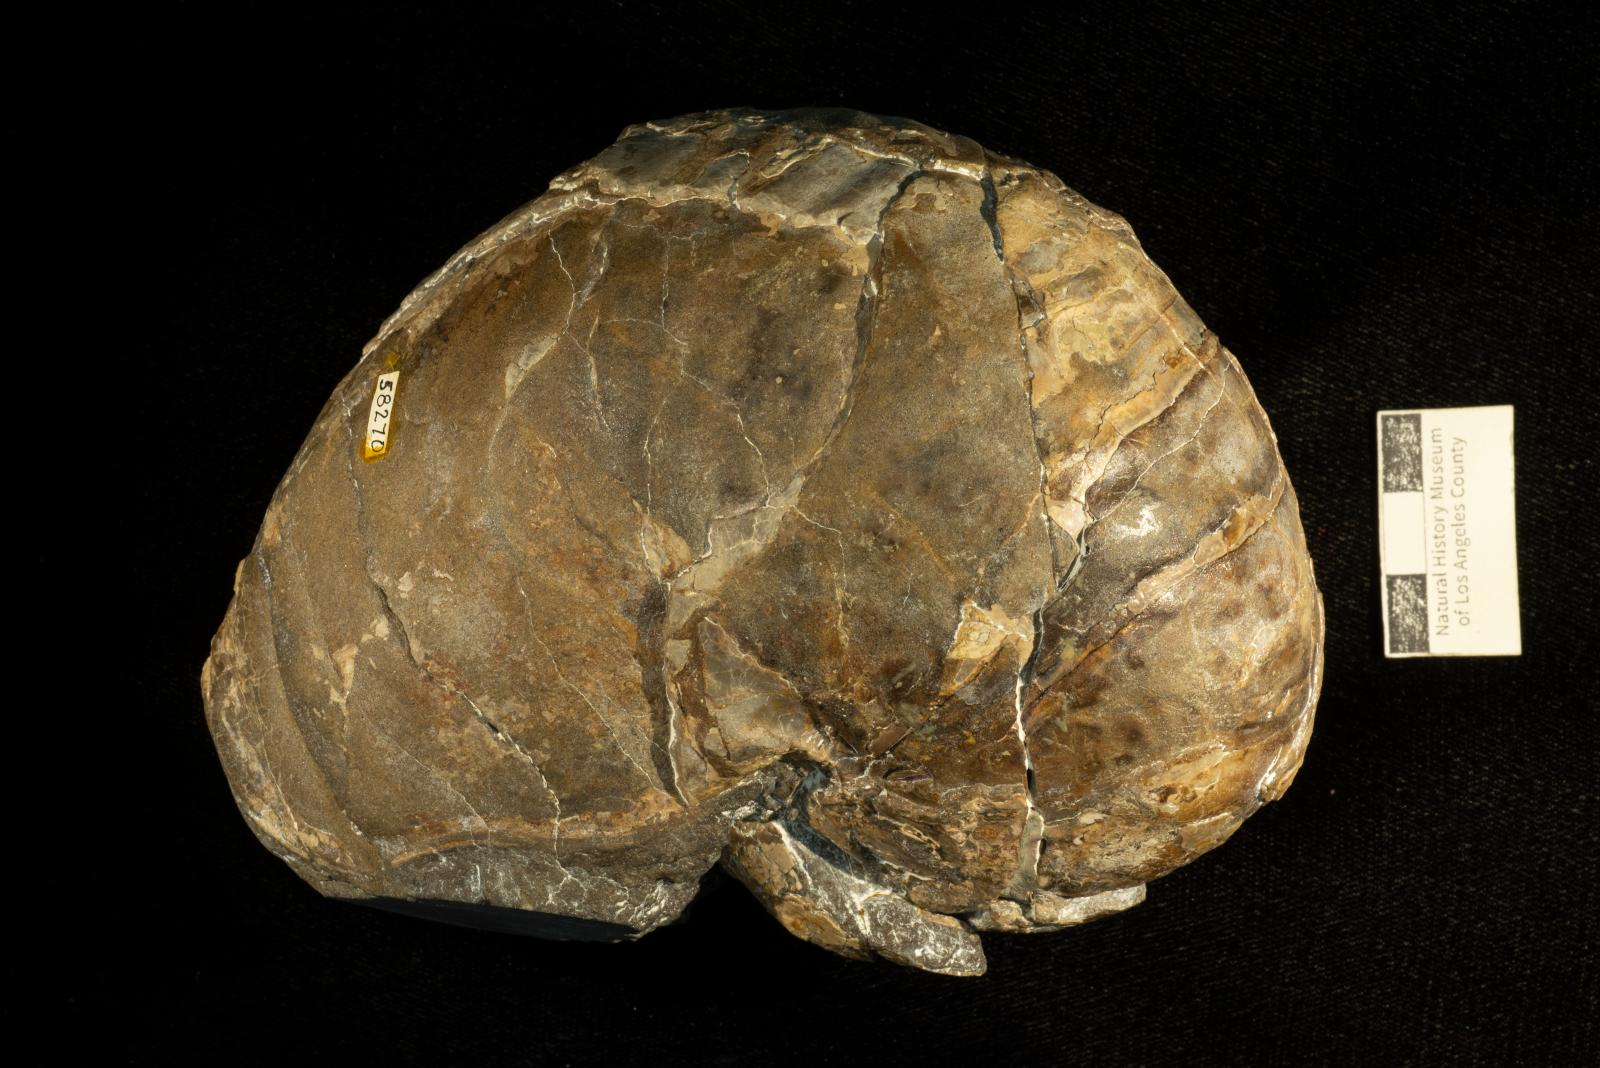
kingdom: Animalia
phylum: Mollusca
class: Cephalopoda
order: Nautilida
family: Cymatoceratidae
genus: Anglonautilus
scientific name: Anglonautilus
